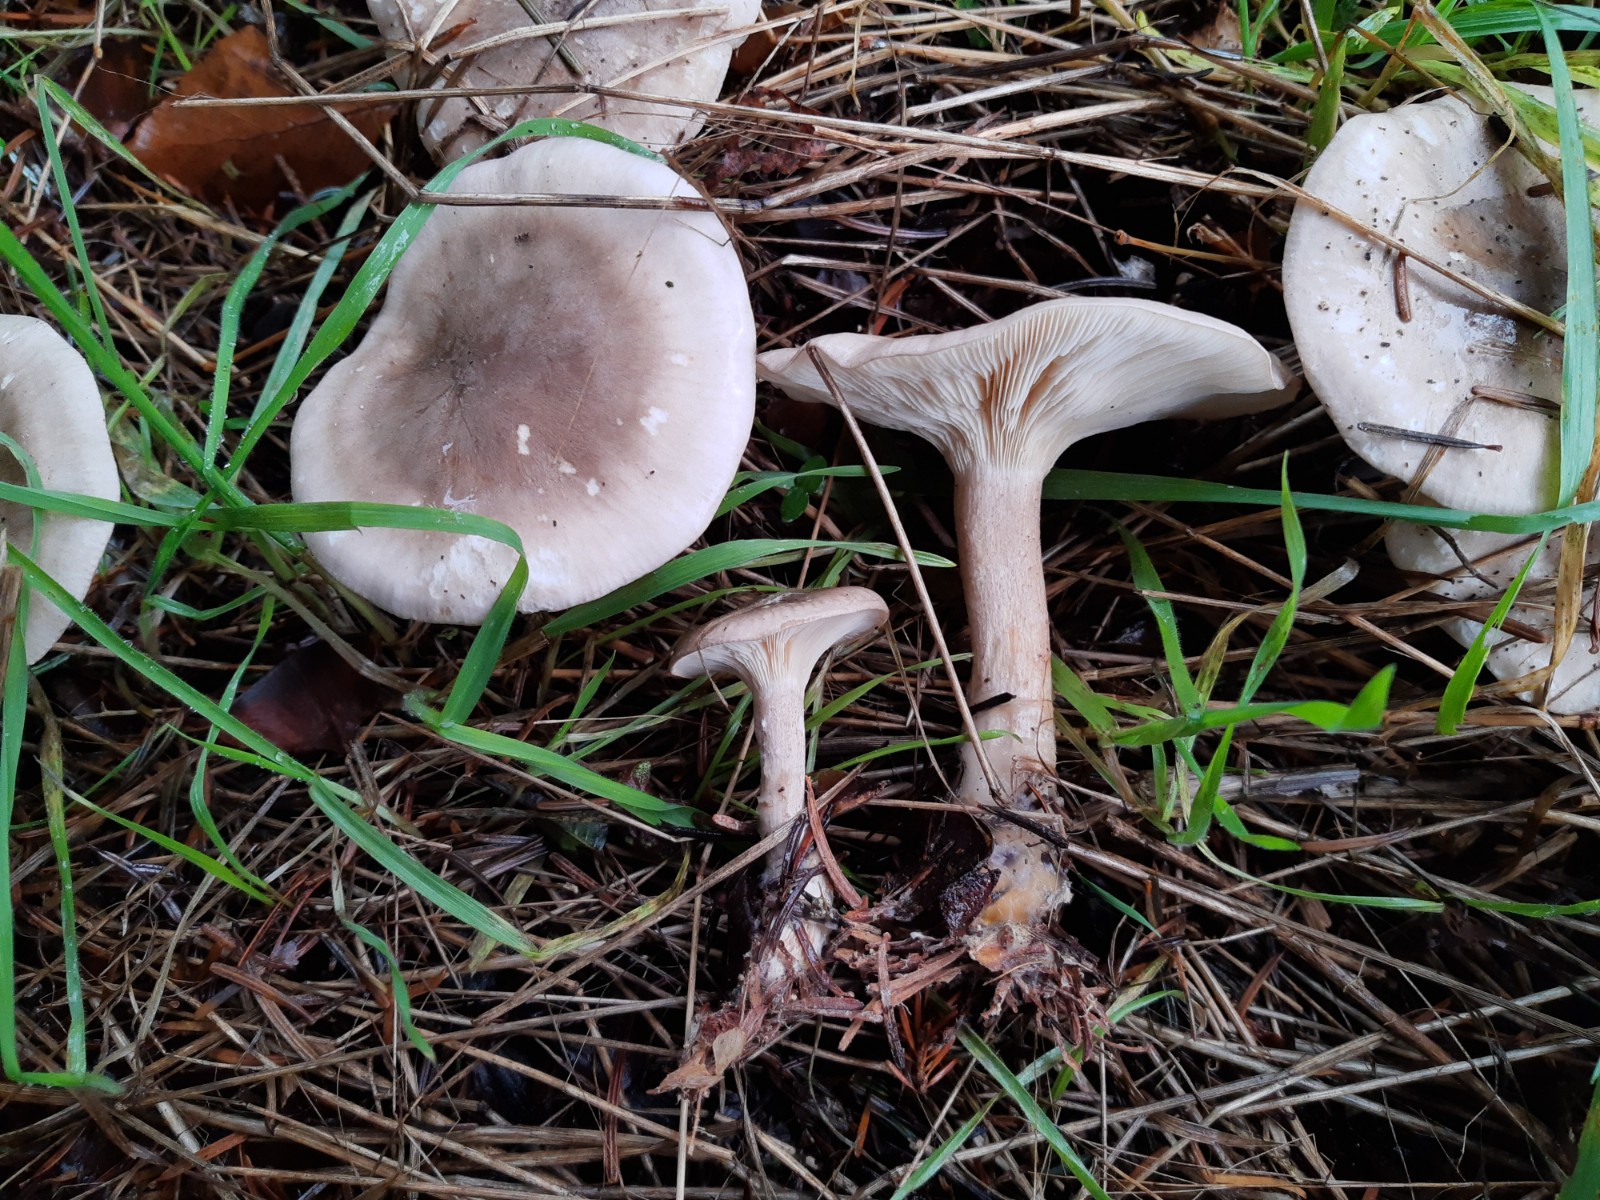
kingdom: Fungi
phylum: Basidiomycota
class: Agaricomycetes
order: Agaricales
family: Tricholomataceae
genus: Clitocybe
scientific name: Clitocybe nebularis
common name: tåge-tragthat
